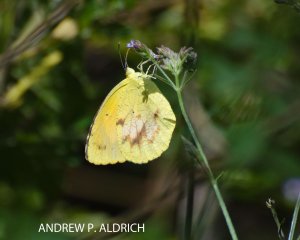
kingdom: Animalia
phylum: Arthropoda
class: Insecta
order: Lepidoptera
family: Pieridae
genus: Abaeis
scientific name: Abaeis nicippe
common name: Sleepy Orange
